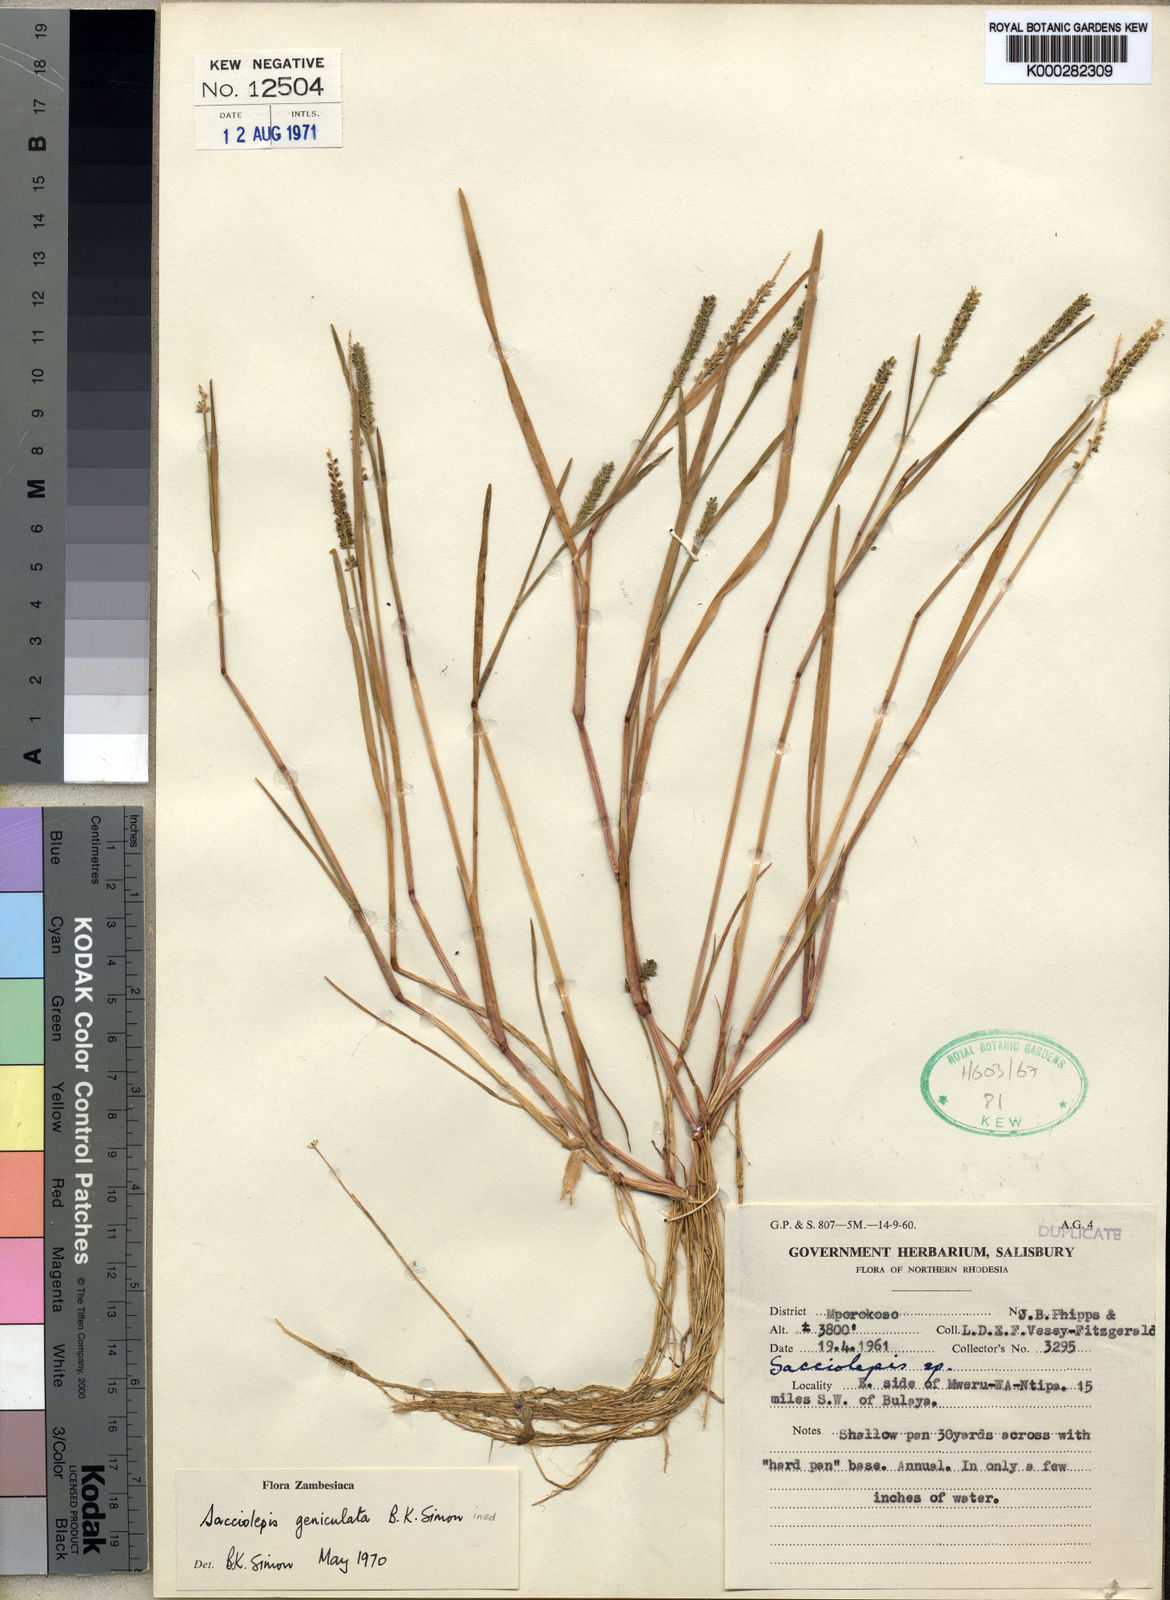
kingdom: Plantae
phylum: Tracheophyta
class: Liliopsida
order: Poales
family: Poaceae
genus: Sacciolepis
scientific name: Sacciolepis myosuroides
